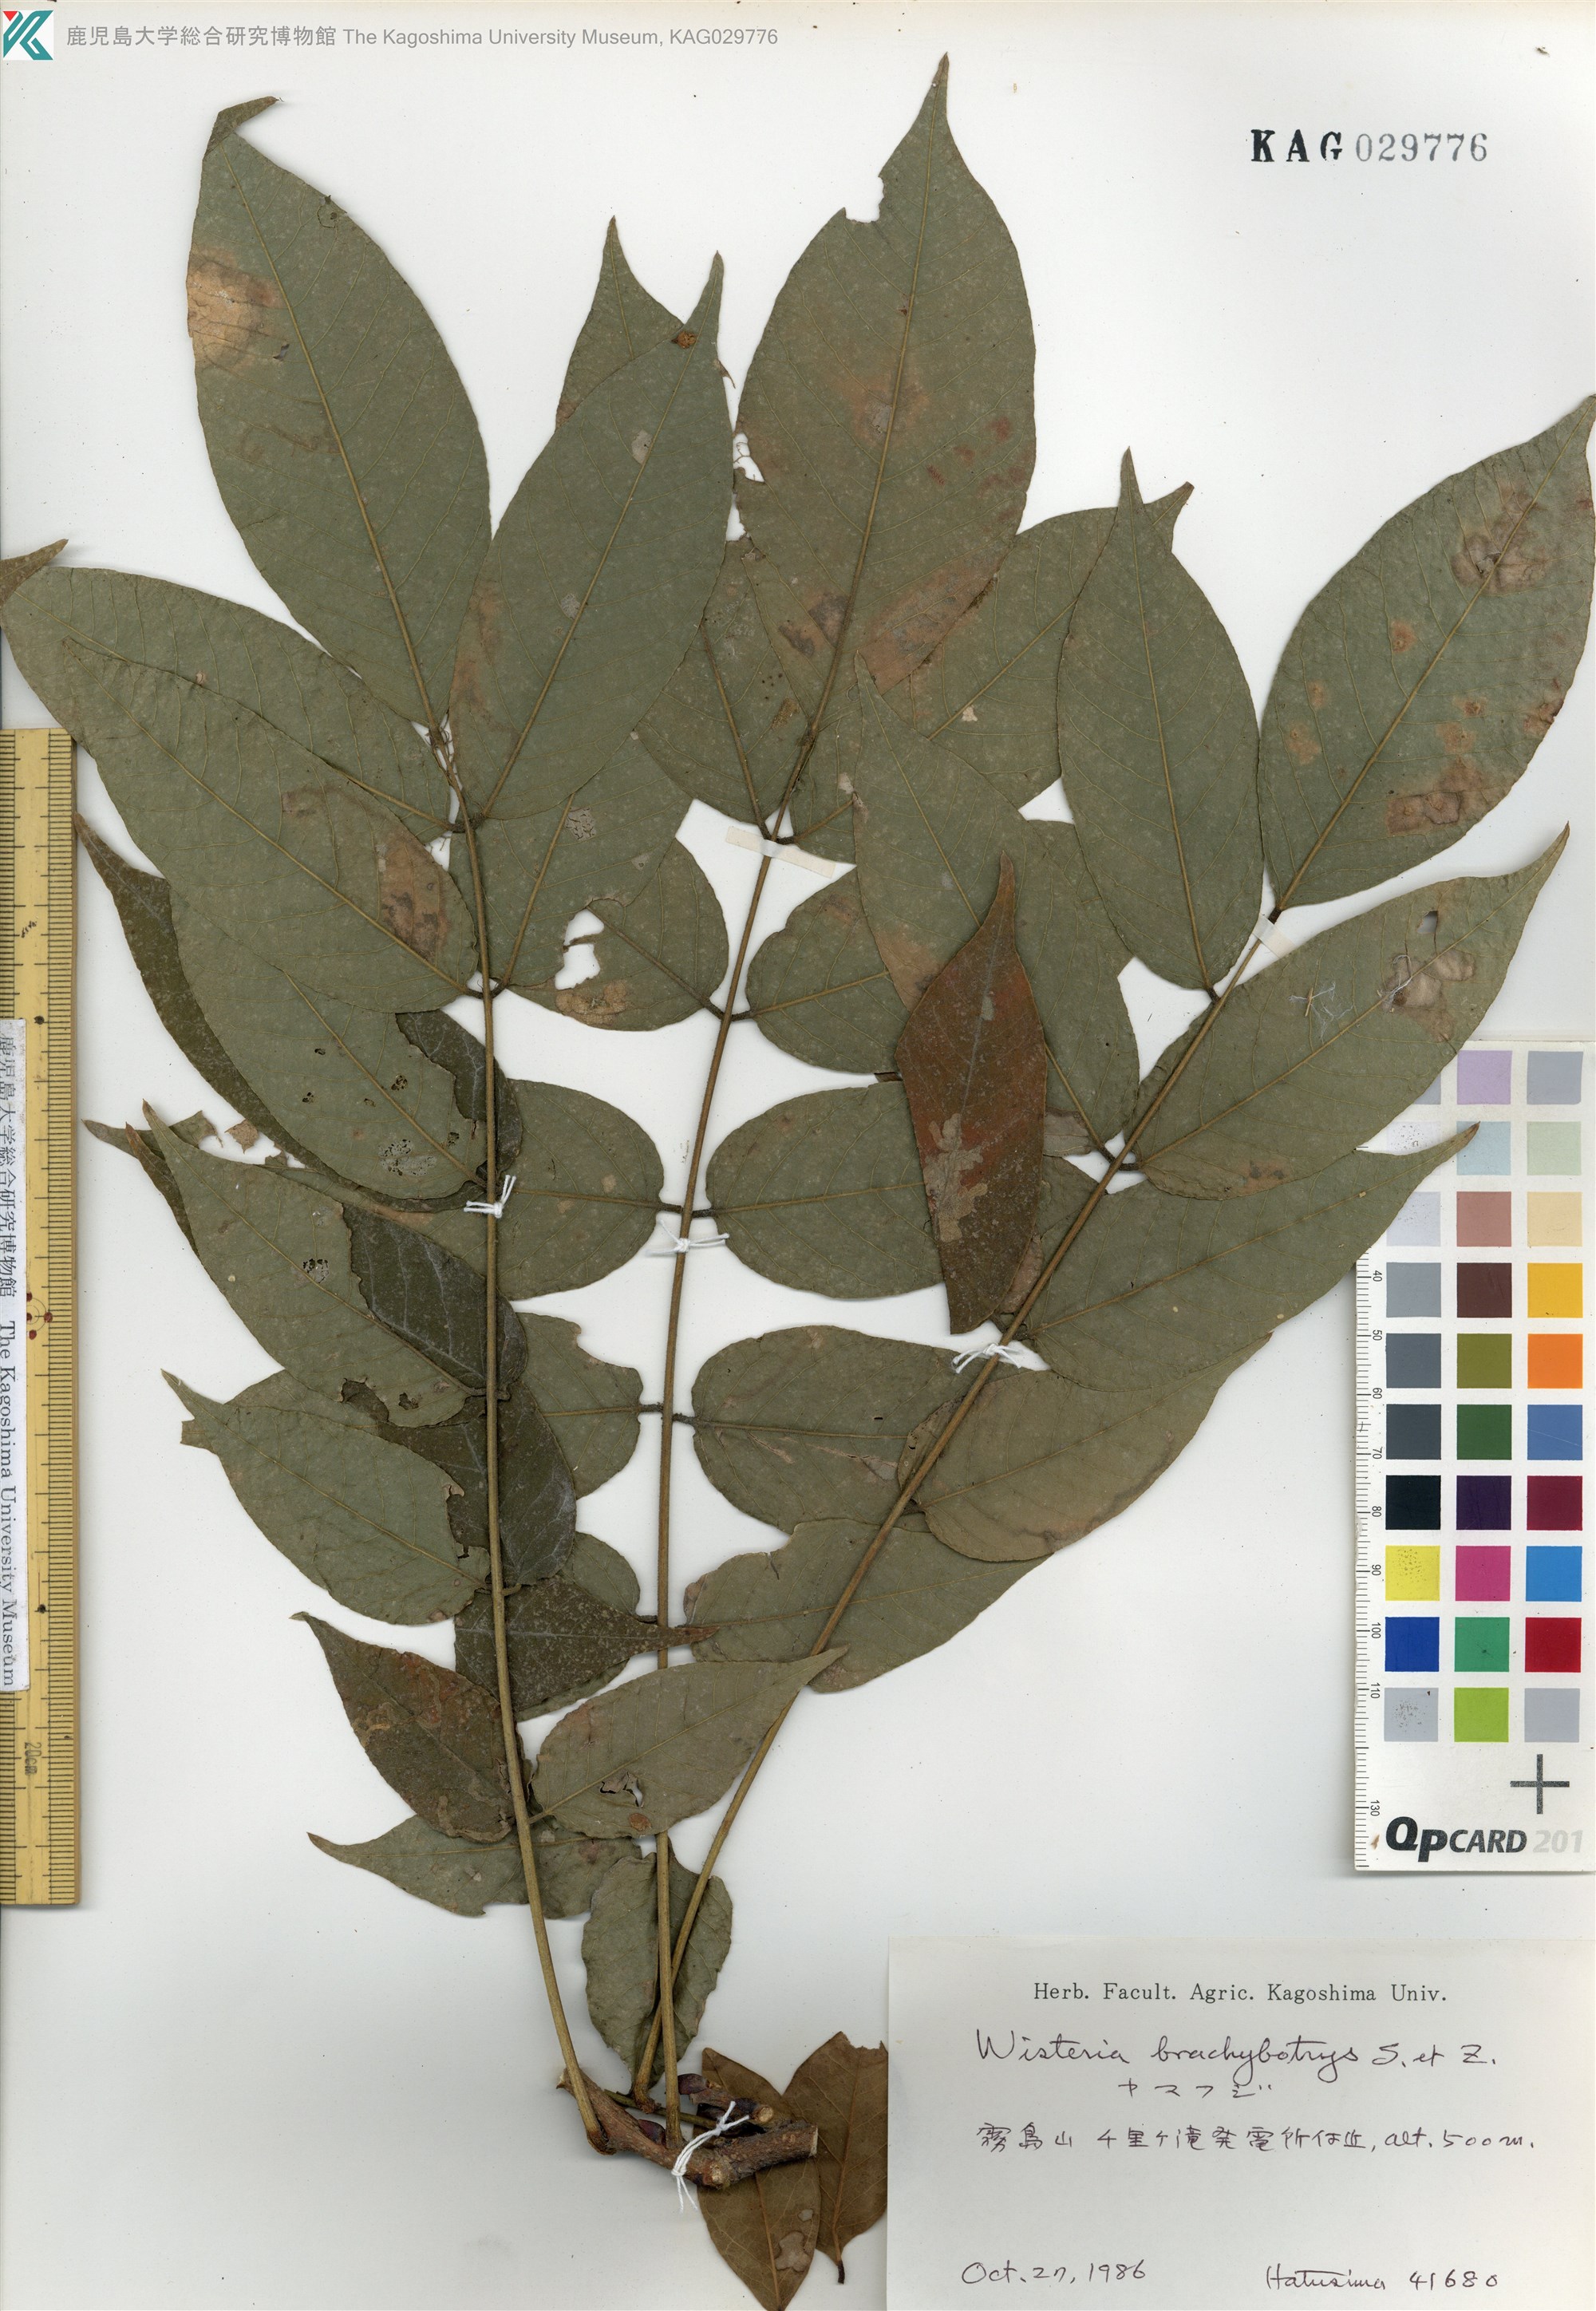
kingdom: Plantae
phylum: Tracheophyta
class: Magnoliopsida
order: Fabales
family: Fabaceae
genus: Wisteria
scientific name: Wisteria brachybotrys
